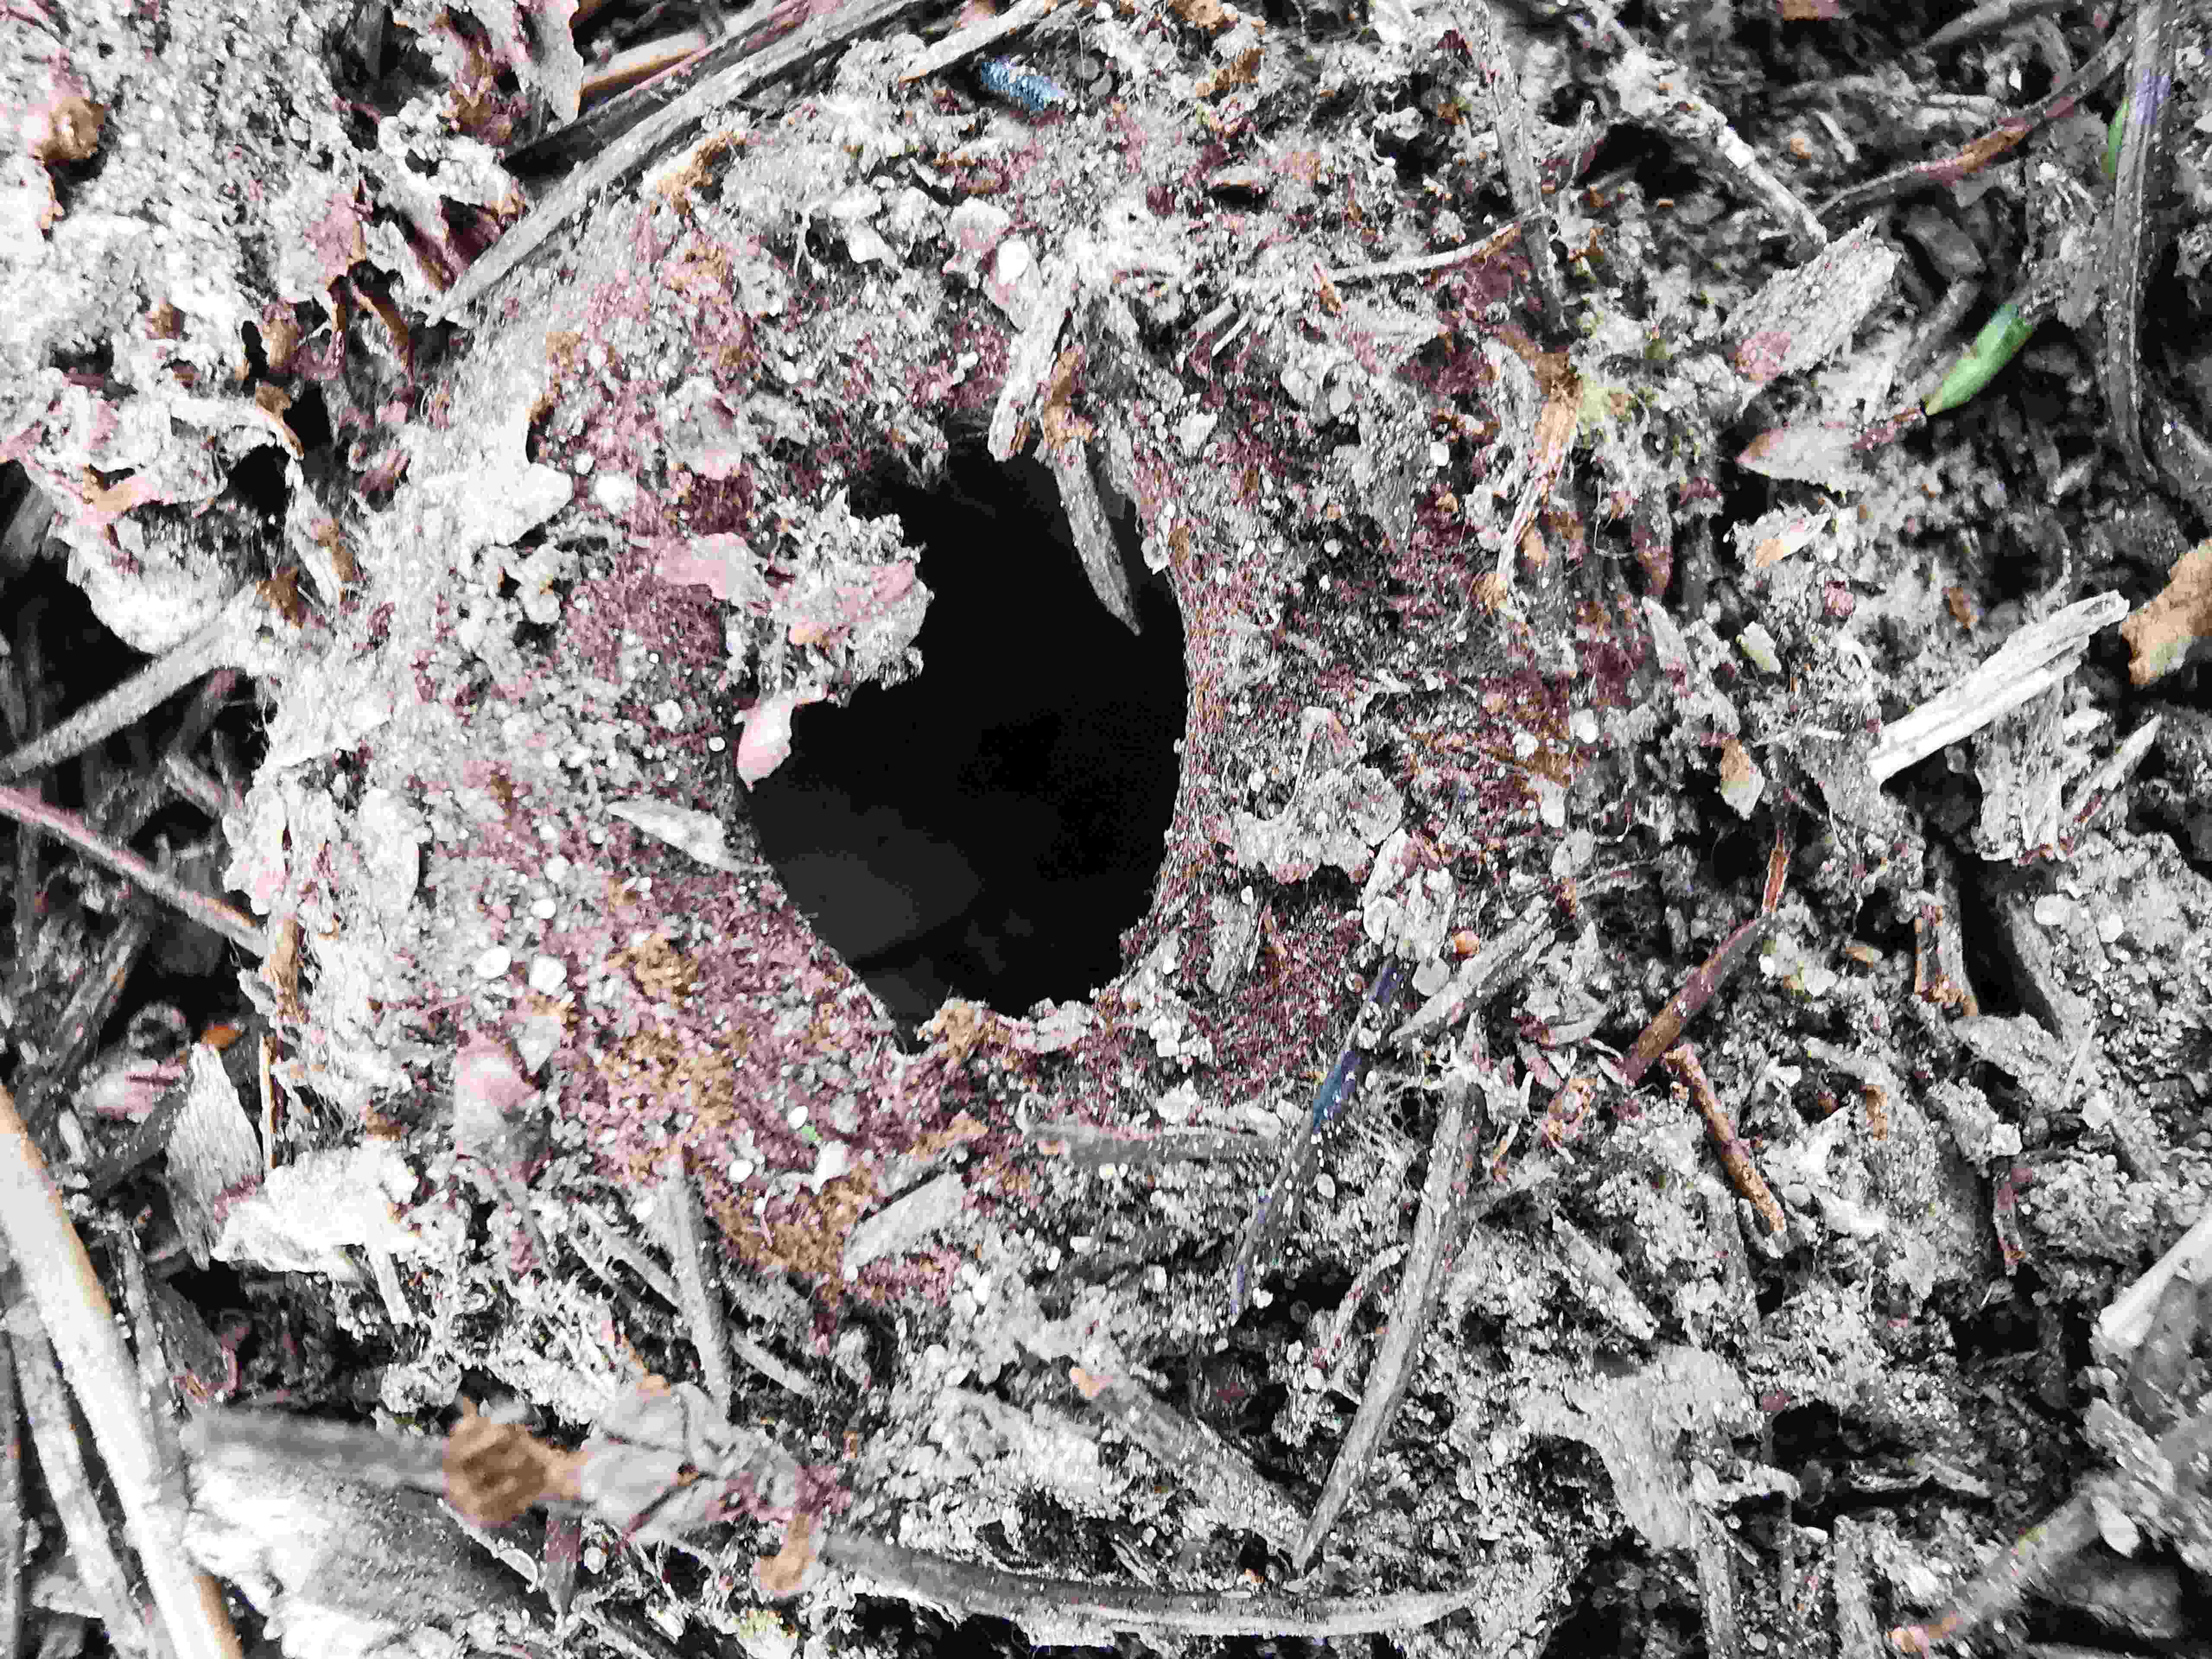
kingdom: Fungi
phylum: Ascomycota
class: Pezizomycetes
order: Pezizales
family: Pyronemataceae
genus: Geopora
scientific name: Geopora sumneriana
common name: vår-jordbæger
